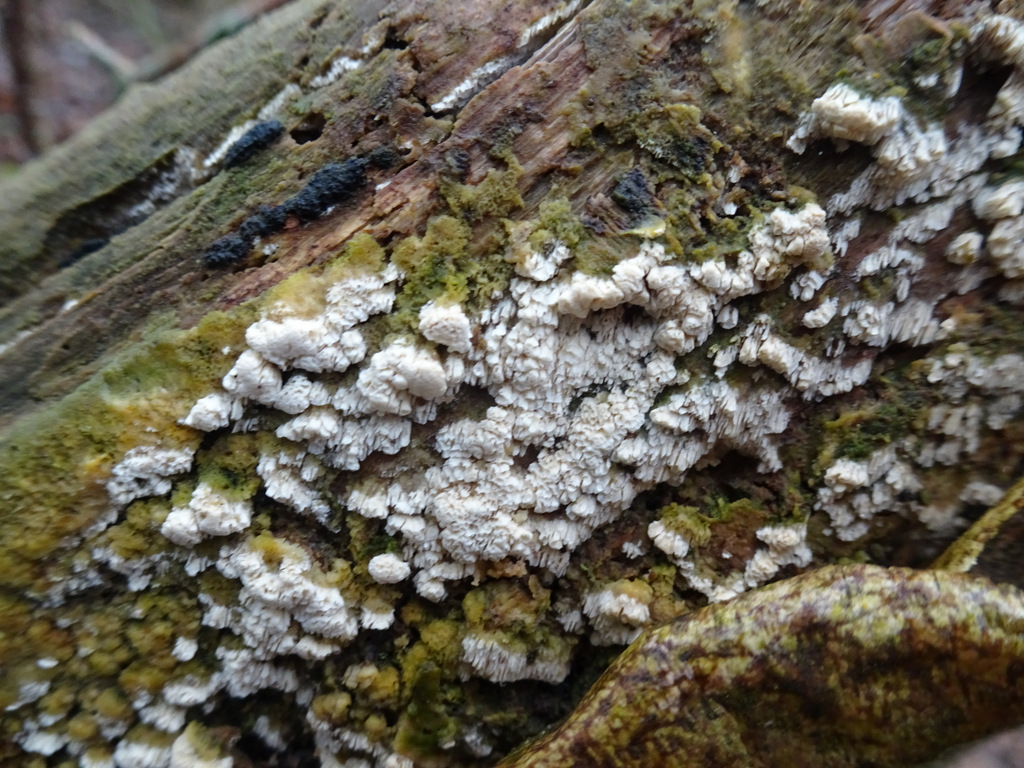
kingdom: Fungi
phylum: Basidiomycota
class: Agaricomycetes
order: Hymenochaetales
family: Schizoporaceae
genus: Schizopora
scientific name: Schizopora paradoxa
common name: hvid tandsvamp
